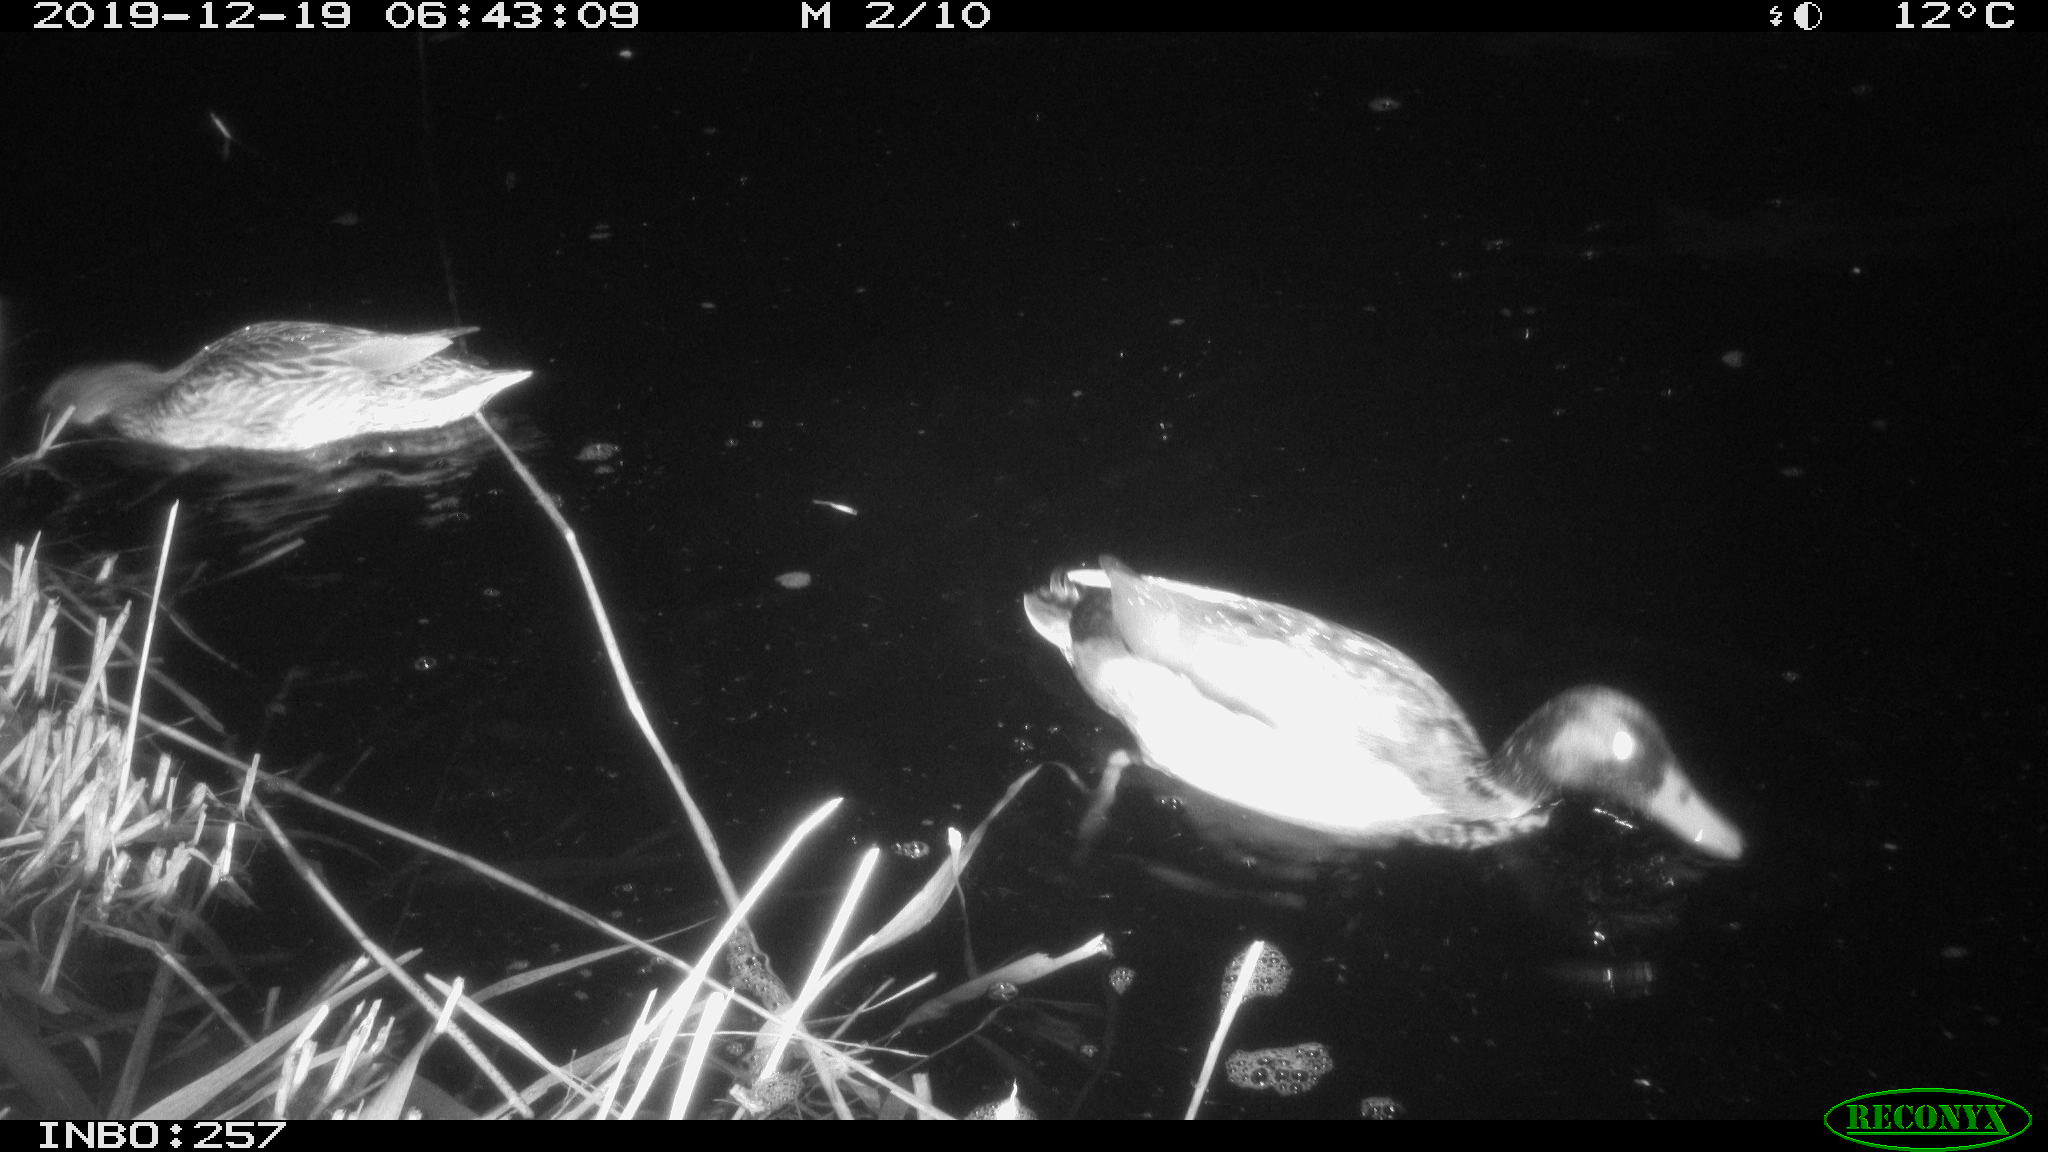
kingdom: Animalia
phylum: Chordata
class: Aves
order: Anseriformes
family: Anatidae
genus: Anas
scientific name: Anas platyrhynchos
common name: Mallard
